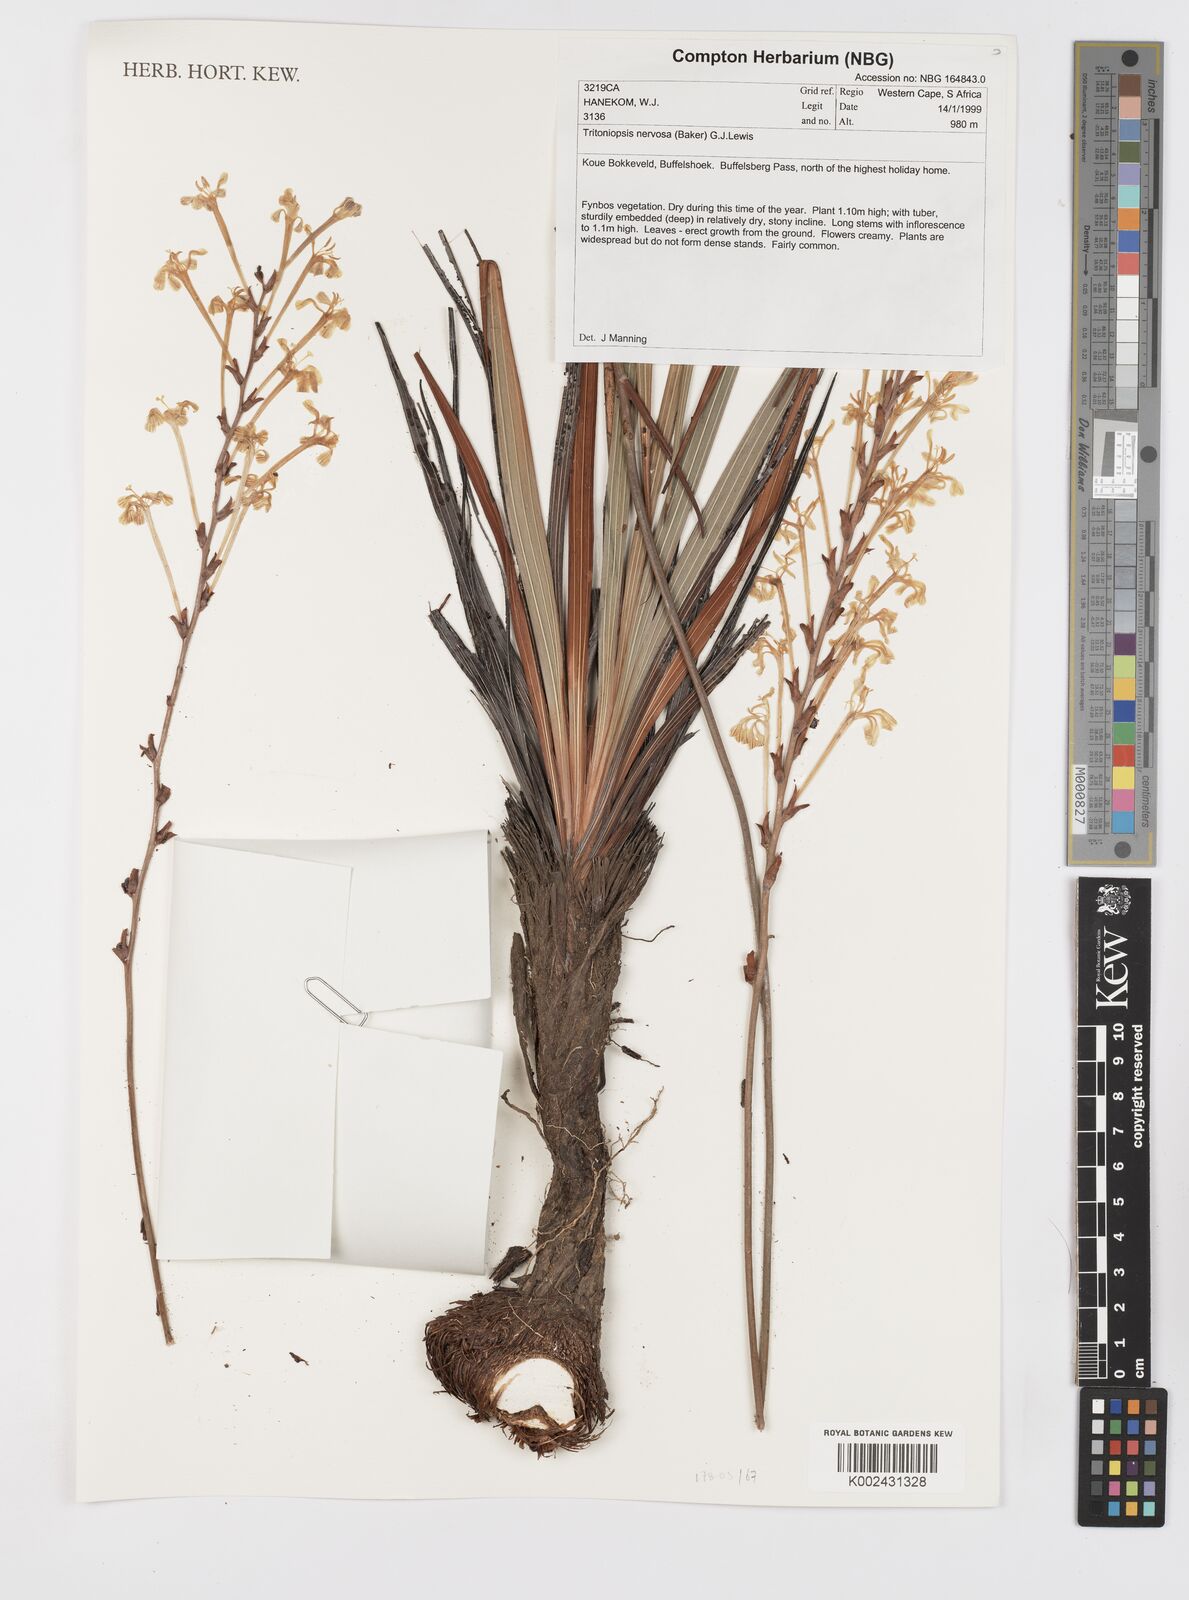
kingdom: Plantae
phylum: Tracheophyta
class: Liliopsida
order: Asparagales
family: Iridaceae
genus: Tritoniopsis
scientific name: Tritoniopsis nervosa
